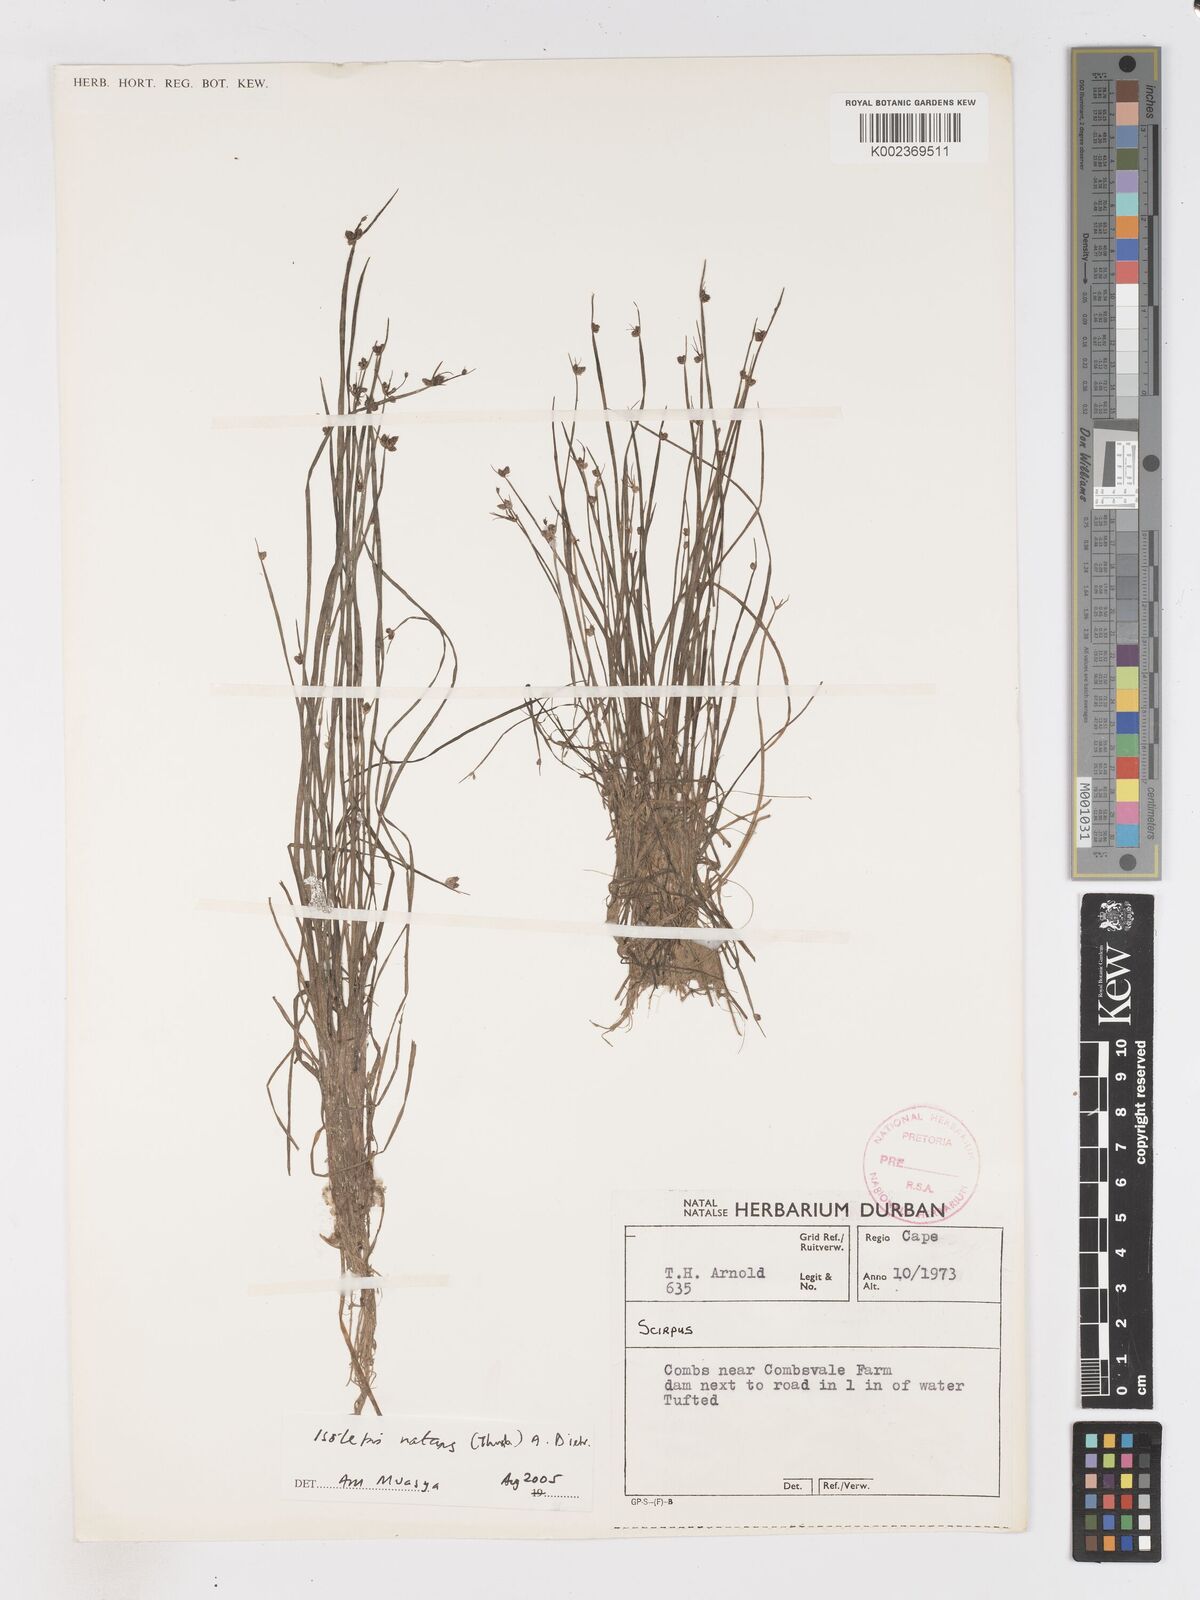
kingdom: Plantae
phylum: Tracheophyta
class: Liliopsida
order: Poales
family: Cyperaceae
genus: Isolepis
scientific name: Isolepis natans
